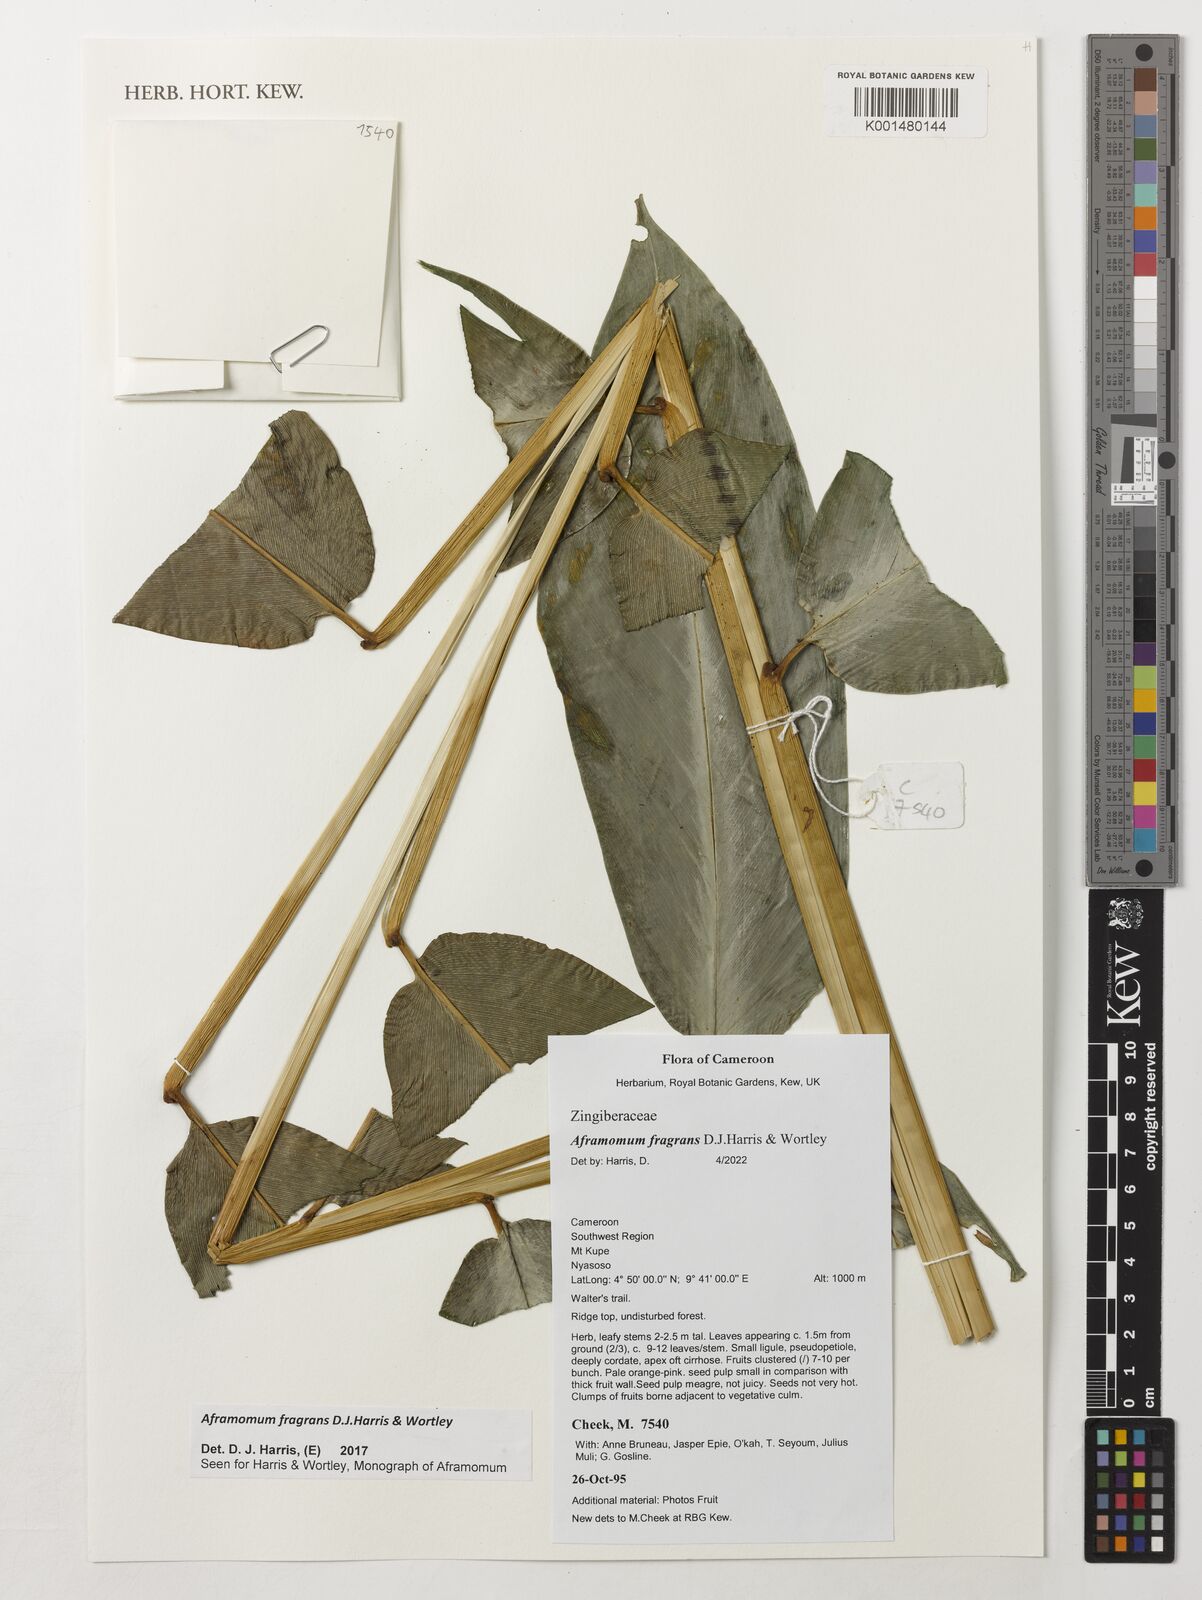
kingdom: Plantae
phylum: Tracheophyta
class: Liliopsida
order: Zingiberales
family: Zingiberaceae
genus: Aframomum
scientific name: Aframomum fragrans
